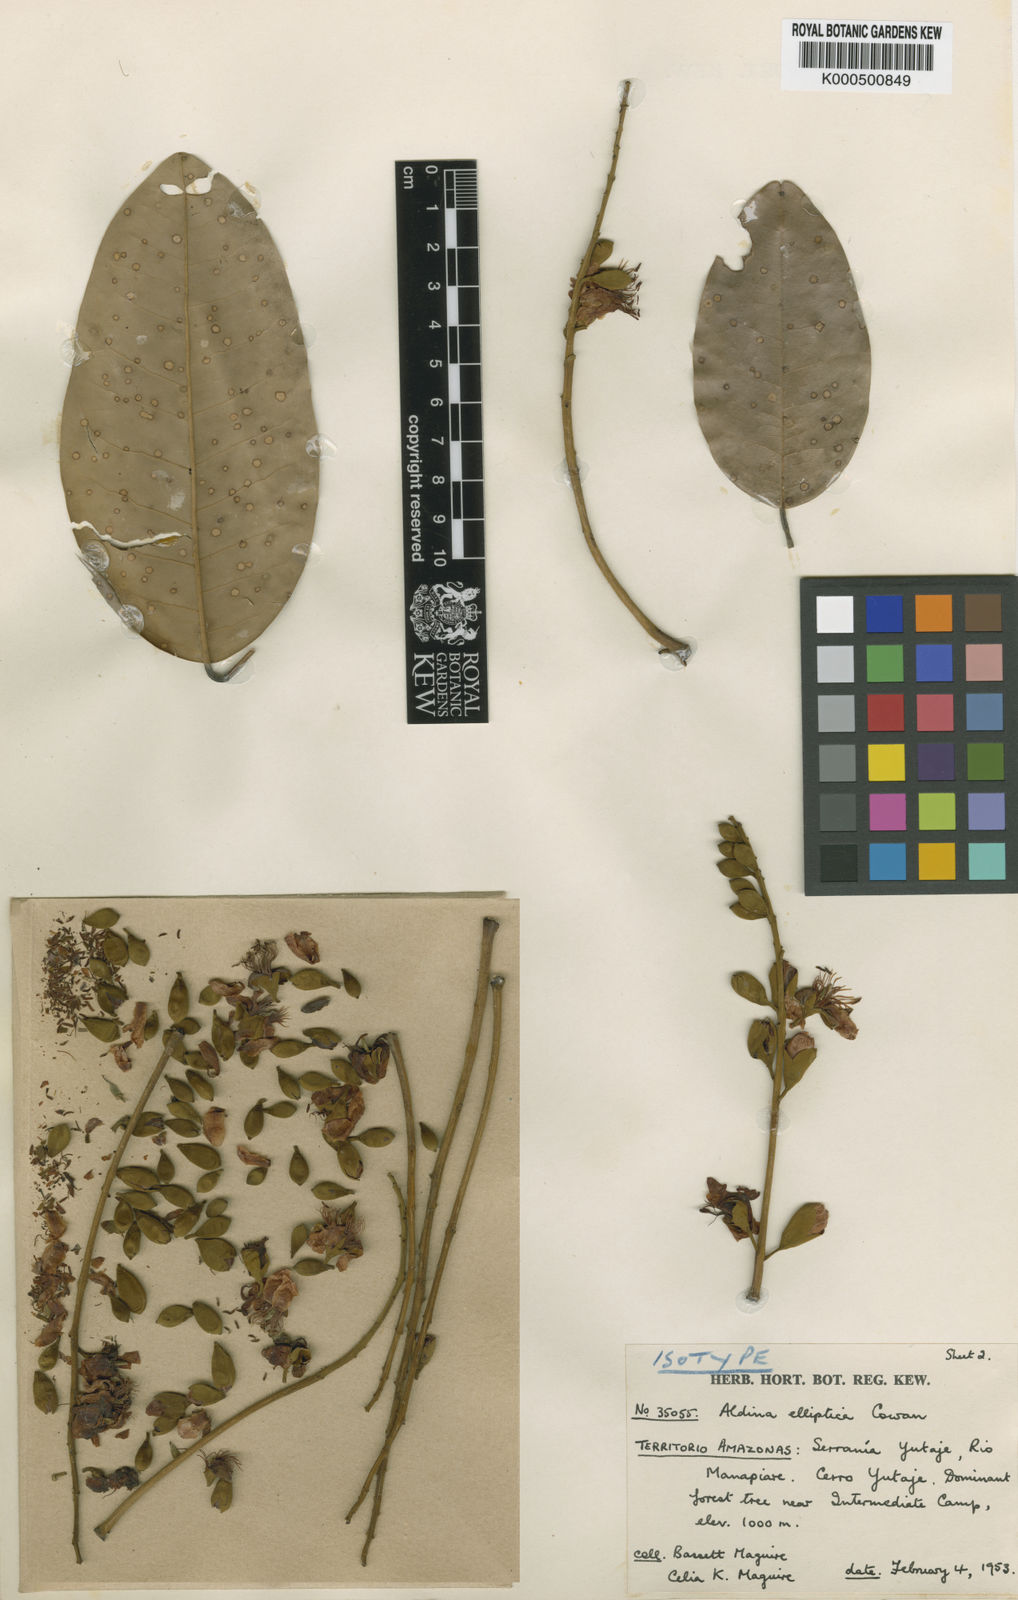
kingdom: Plantae
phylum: Tracheophyta
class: Magnoliopsida
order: Fabales
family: Fabaceae
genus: Aldina
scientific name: Aldina elliptica
